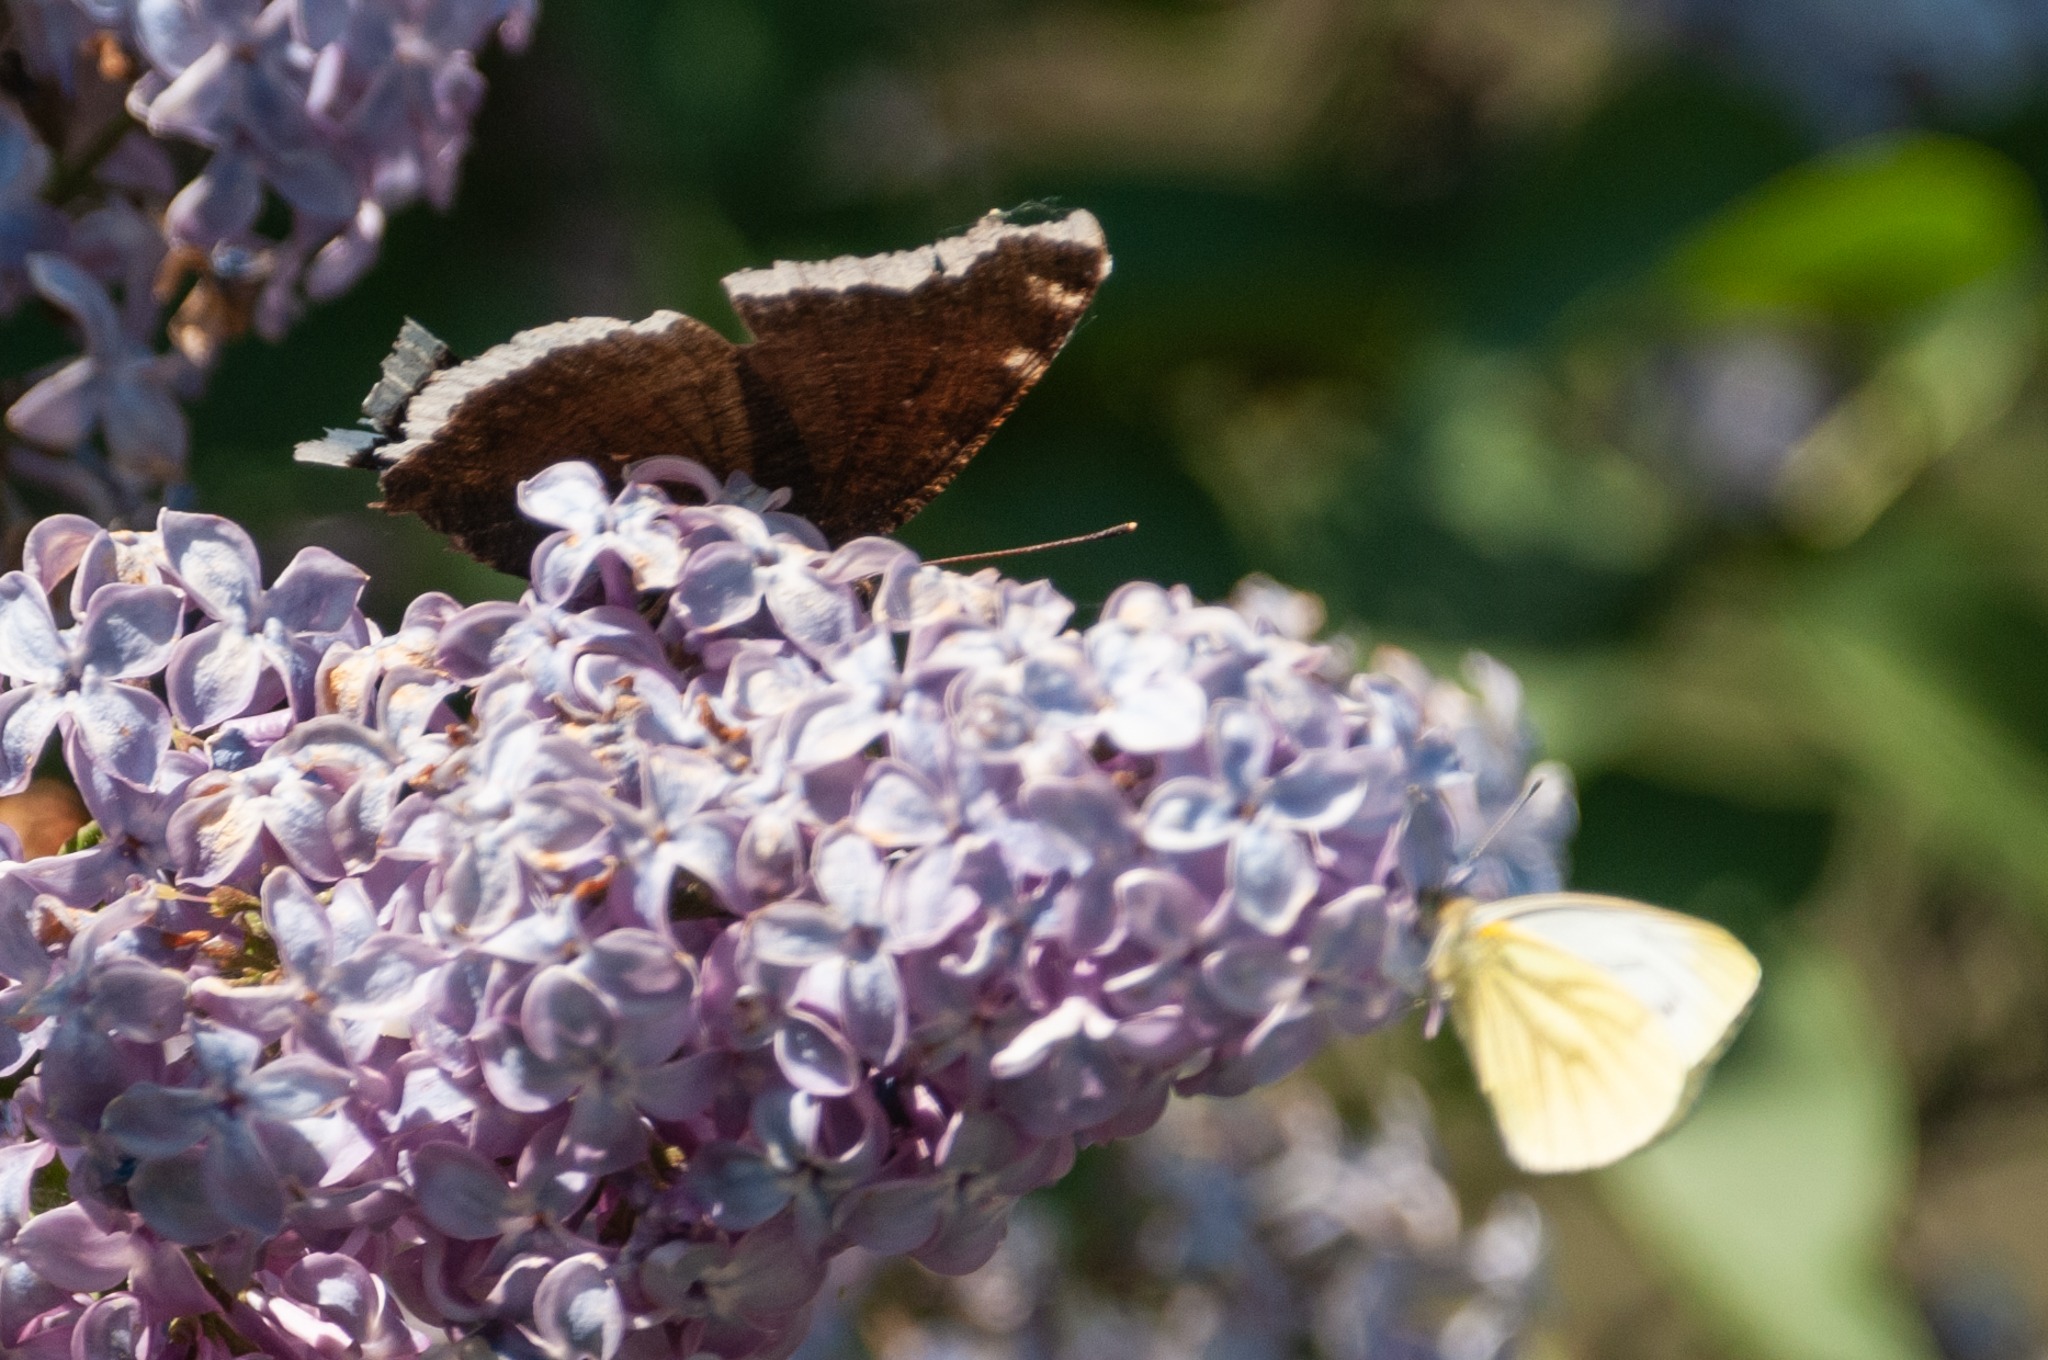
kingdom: Animalia
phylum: Arthropoda
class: Insecta
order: Lepidoptera
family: Pieridae
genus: Pieris
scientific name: Pieris napi
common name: Grønåret kålsommerfugl
